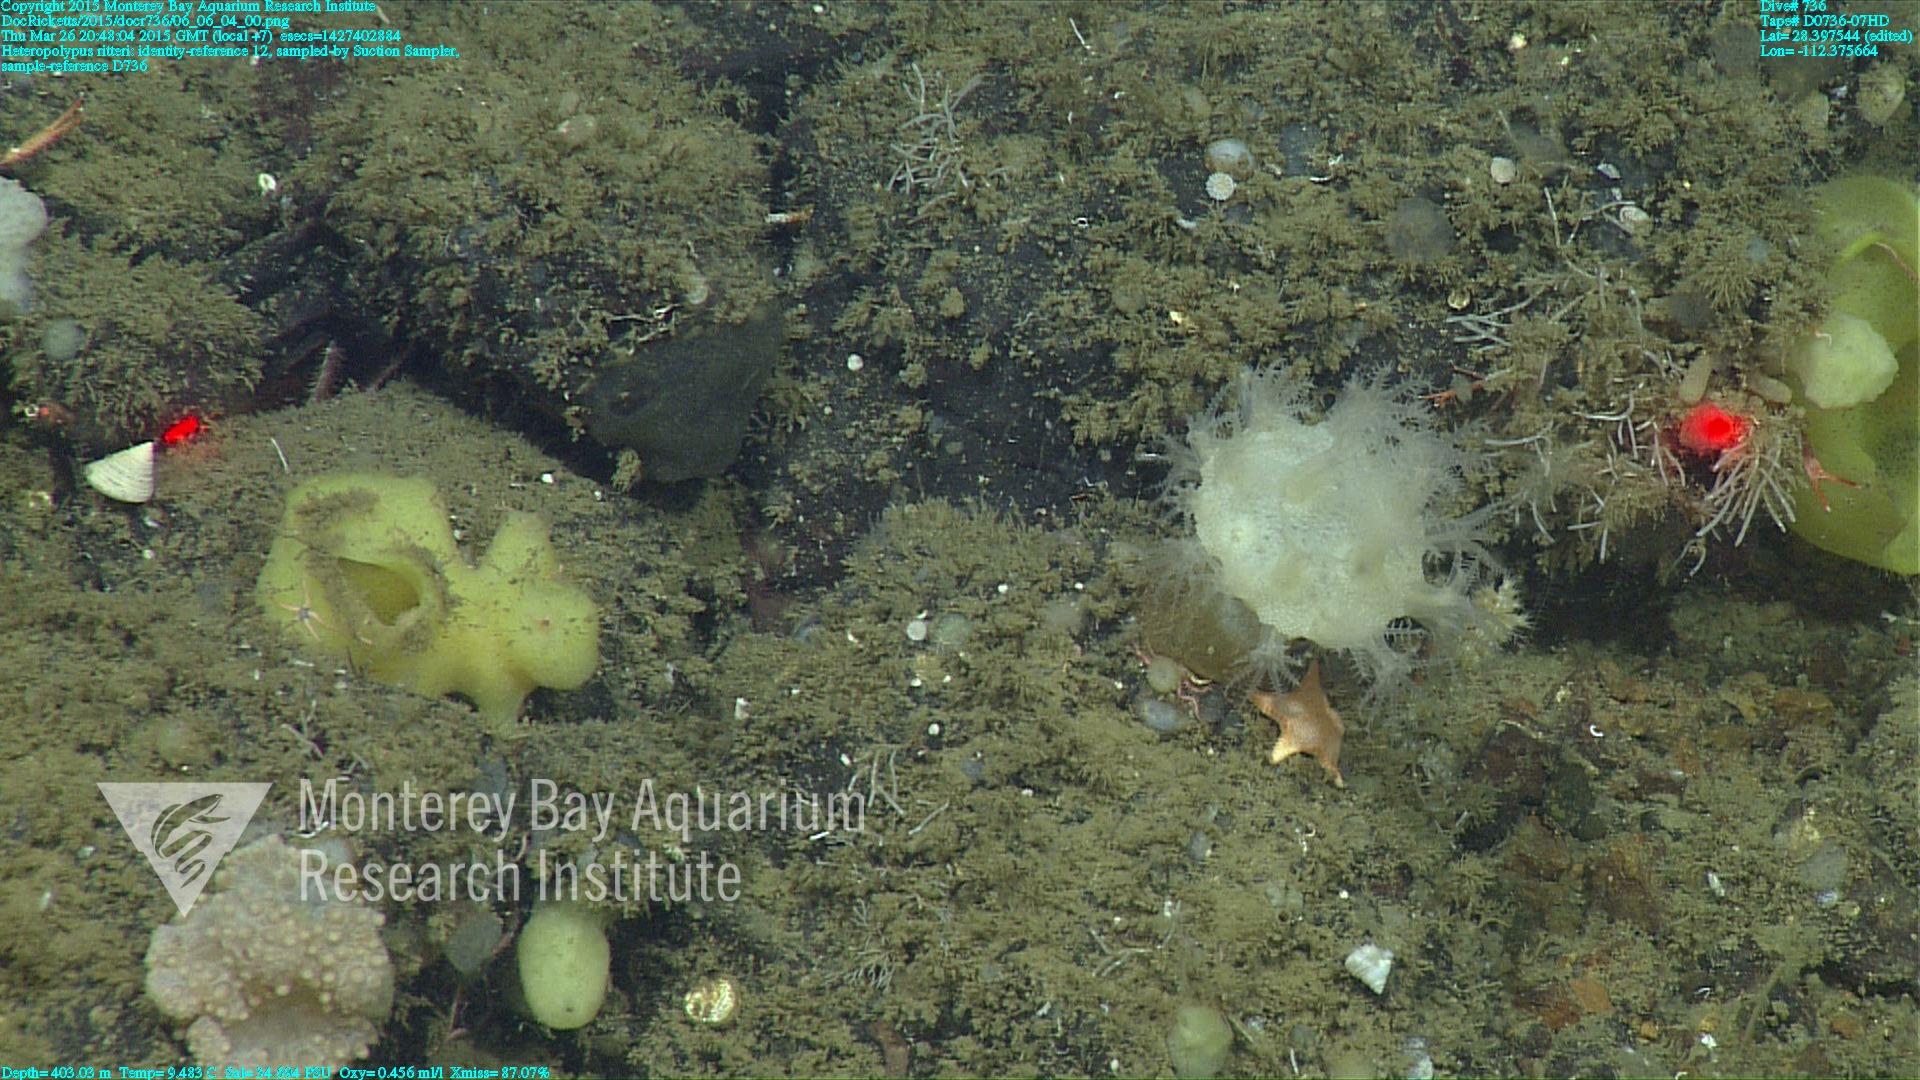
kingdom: Animalia
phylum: Cnidaria
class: Anthozoa
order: Scleralcyonacea
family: Coralliidae
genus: Heteropolypus
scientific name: Heteropolypus ritteri
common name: Ritter's soft coral
